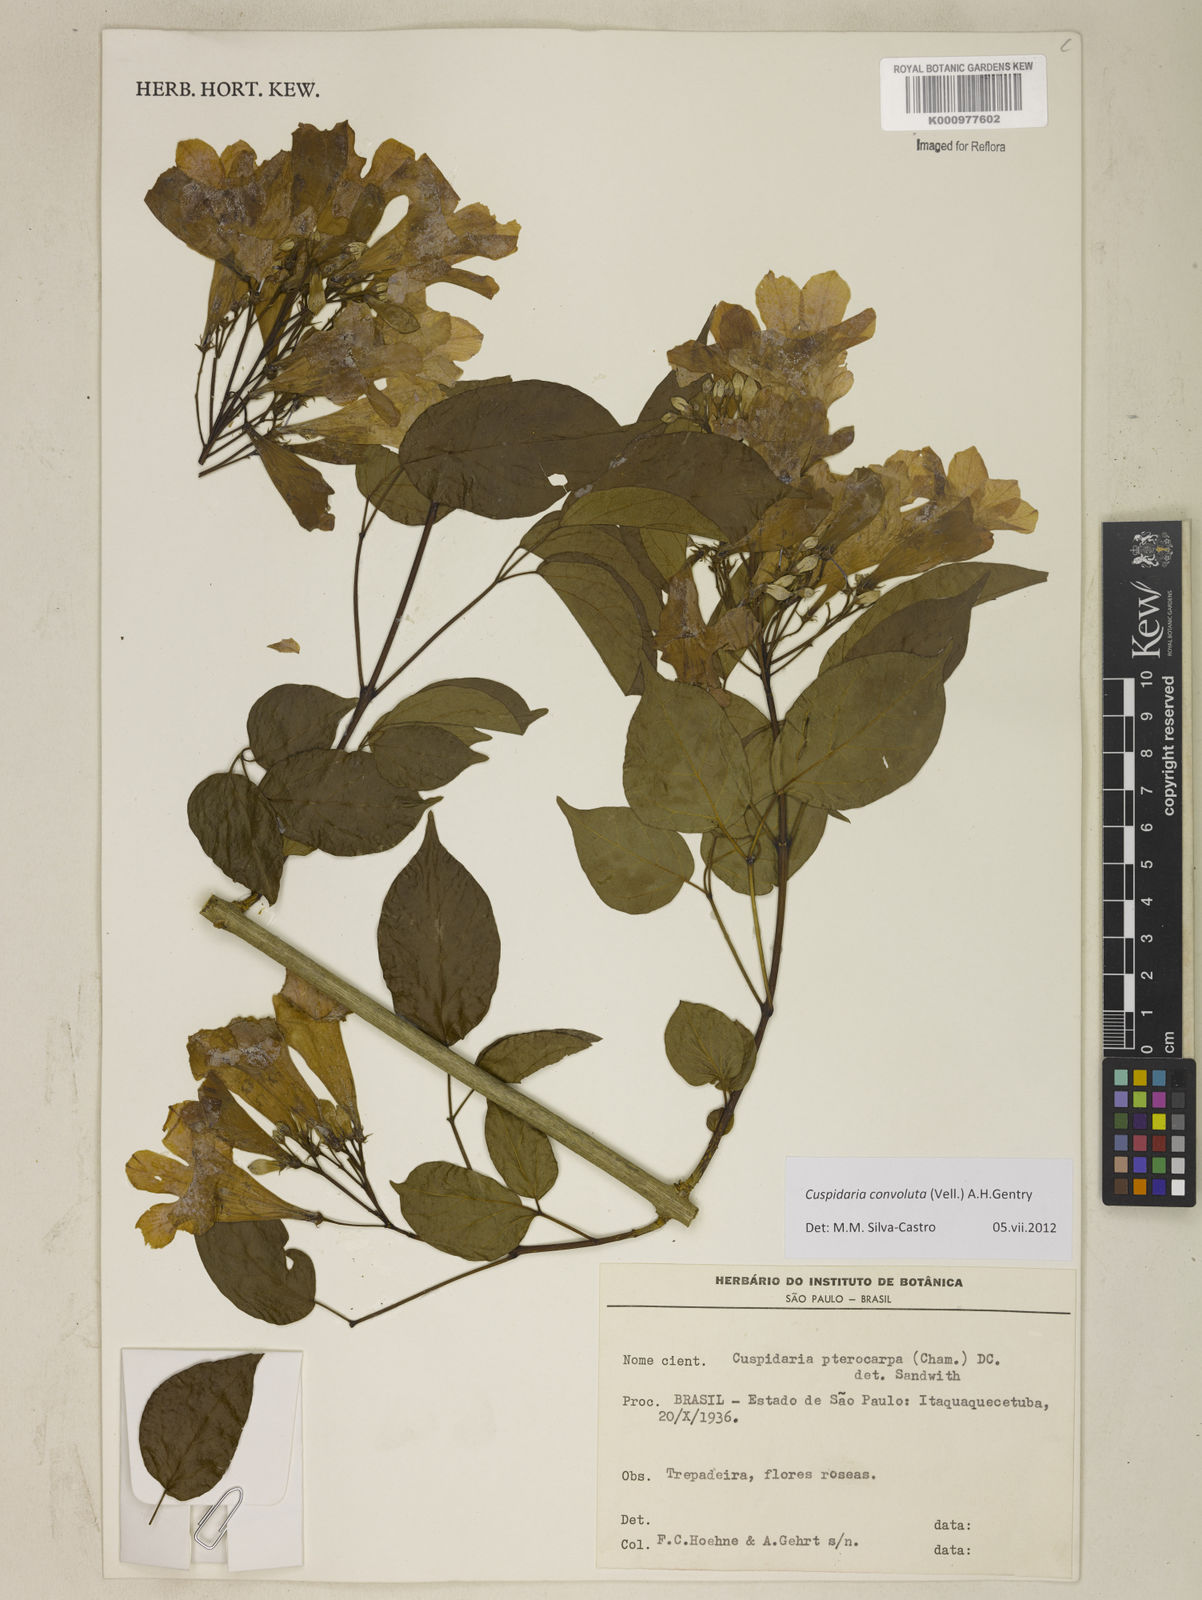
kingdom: Plantae
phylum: Tracheophyta
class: Magnoliopsida
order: Lamiales
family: Bignoniaceae
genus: Cuspidaria
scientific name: Cuspidaria convoluta
